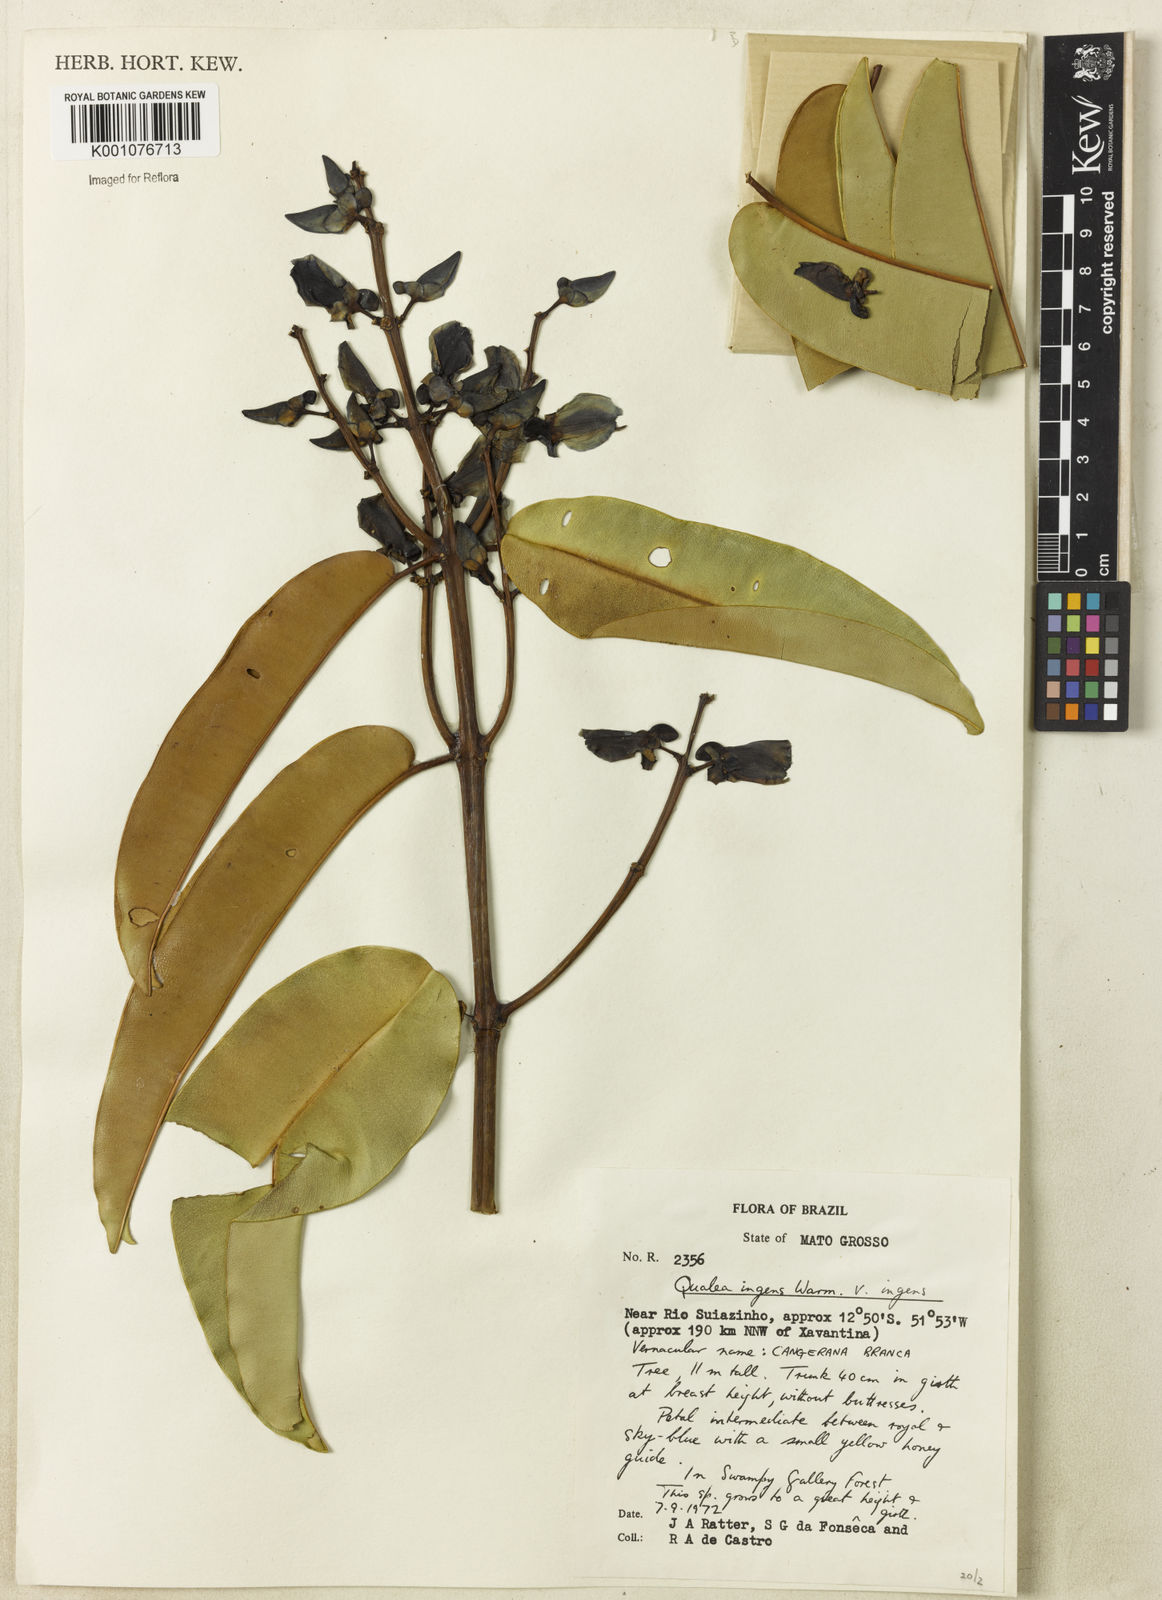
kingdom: Plantae
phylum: Tracheophyta
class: Magnoliopsida
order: Myrtales
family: Vochysiaceae
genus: Qualea
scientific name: Qualea ingens
